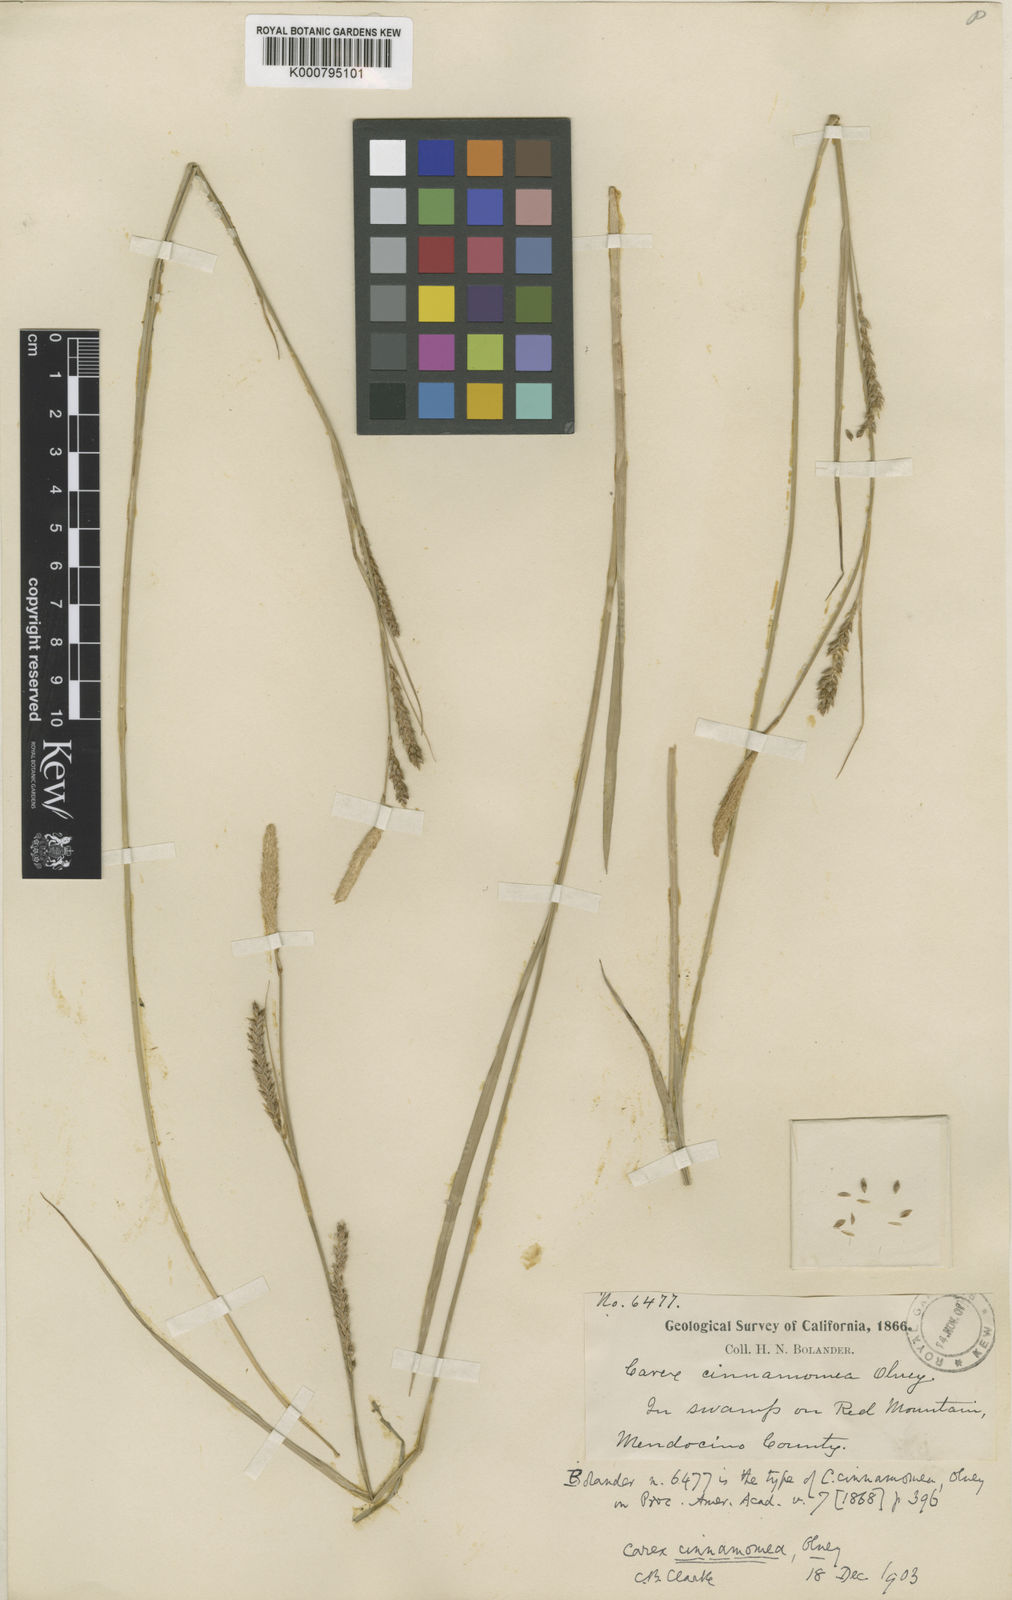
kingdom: Plantae
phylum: Tracheophyta
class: Liliopsida
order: Poales
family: Cyperaceae
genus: Carex
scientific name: Carex mendocinensis
